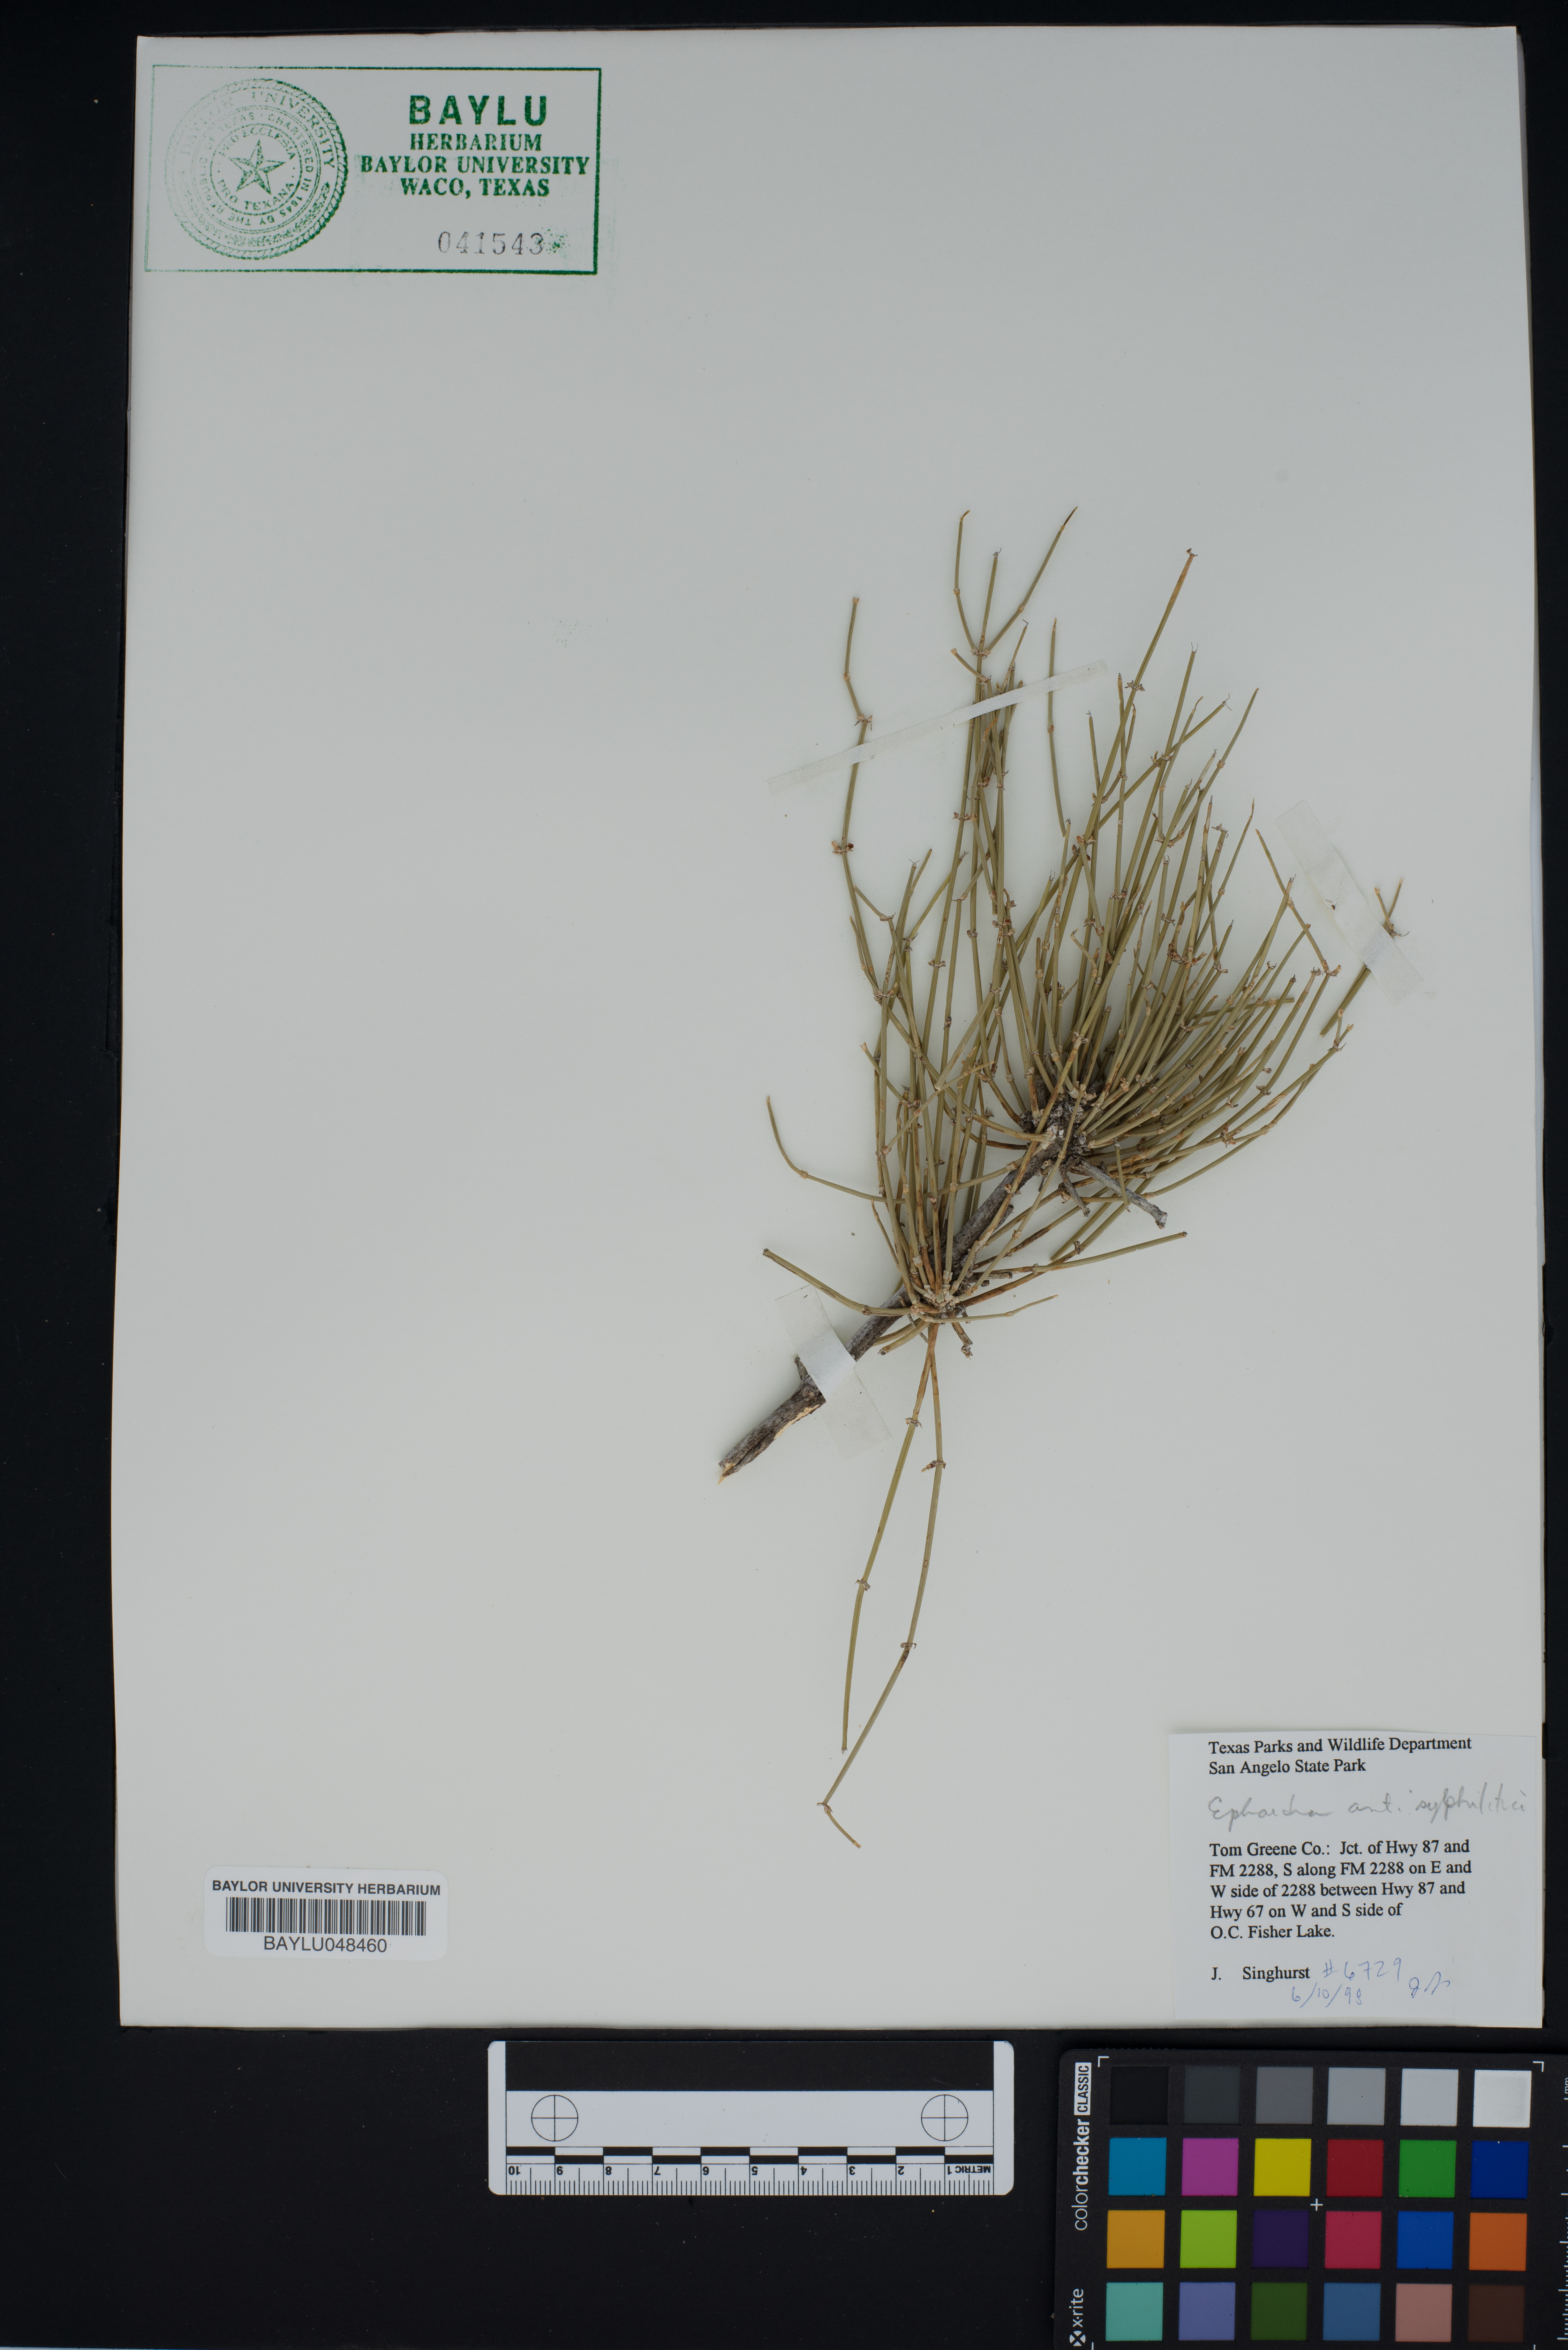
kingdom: Plantae
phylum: Tracheophyta
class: Gnetopsida
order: Ephedrales
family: Ephedraceae
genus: Ephedra
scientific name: Ephedra antisyphilitica
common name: Clipweed
